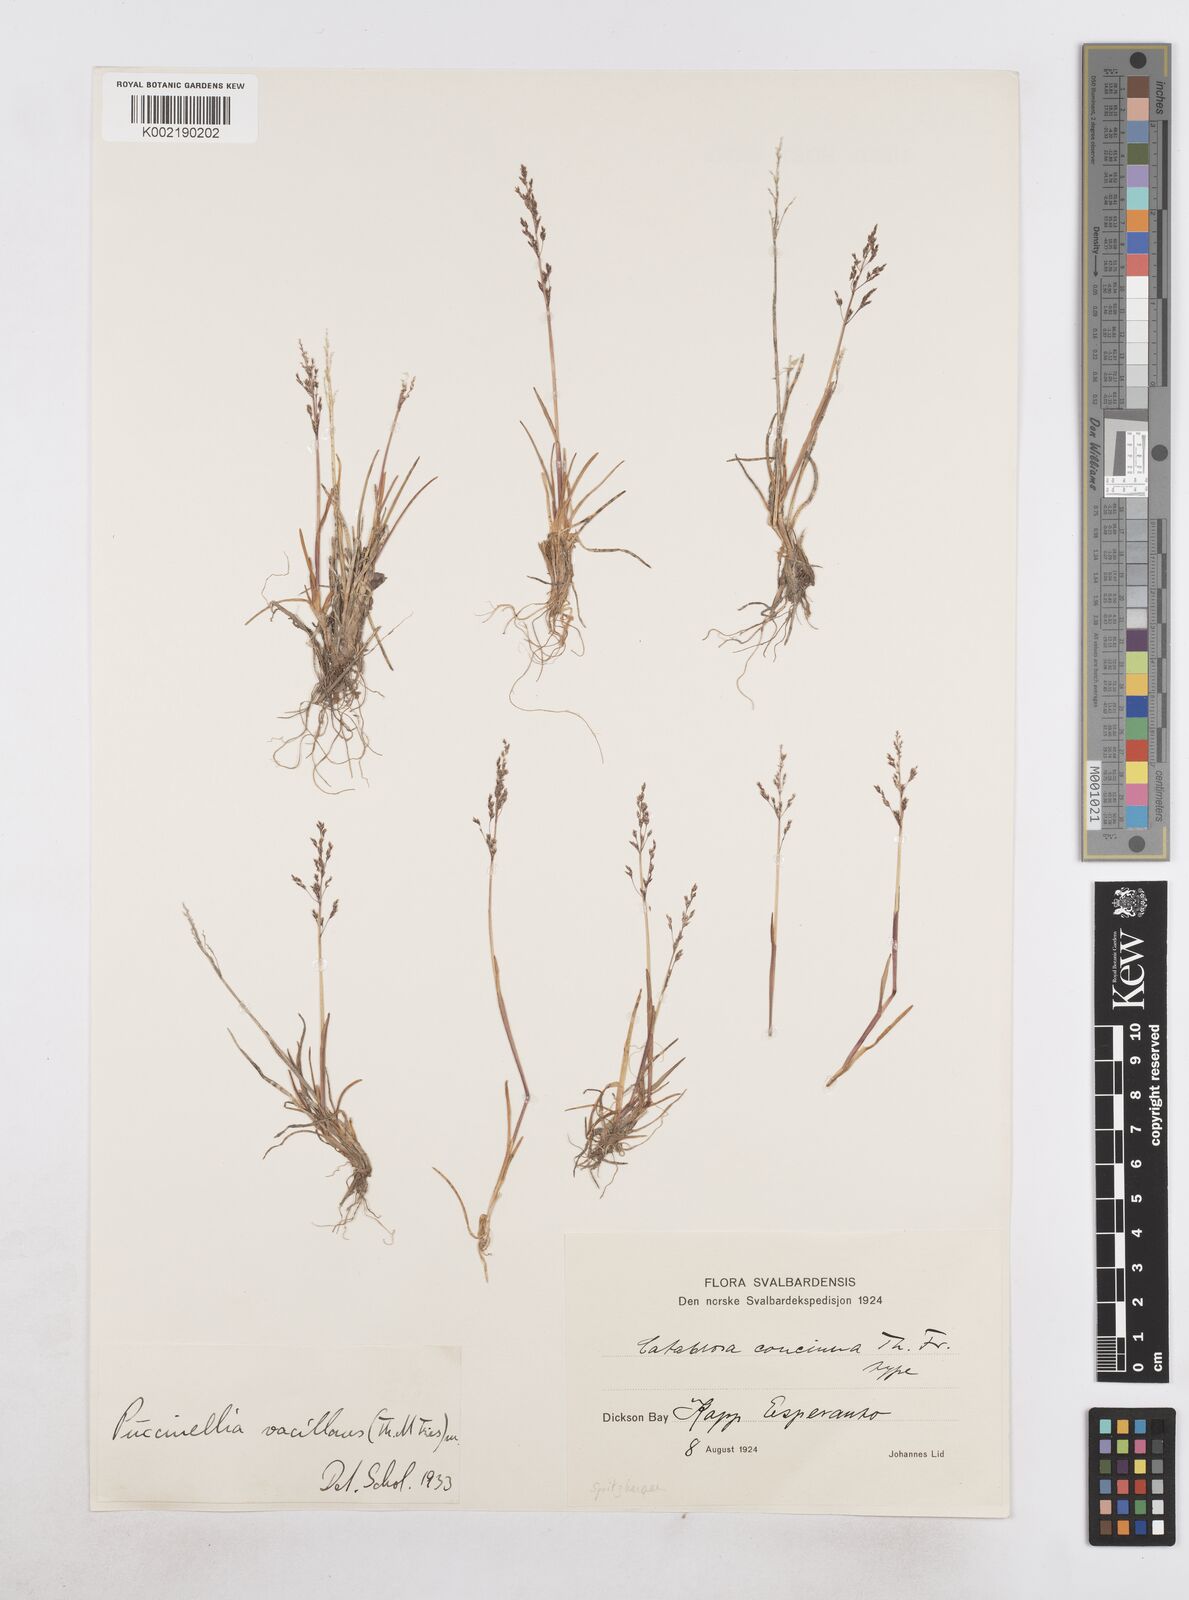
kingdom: Plantae
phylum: Tracheophyta
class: Liliopsida
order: Poales
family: Poaceae
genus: Phippsia
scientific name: Phippsia
